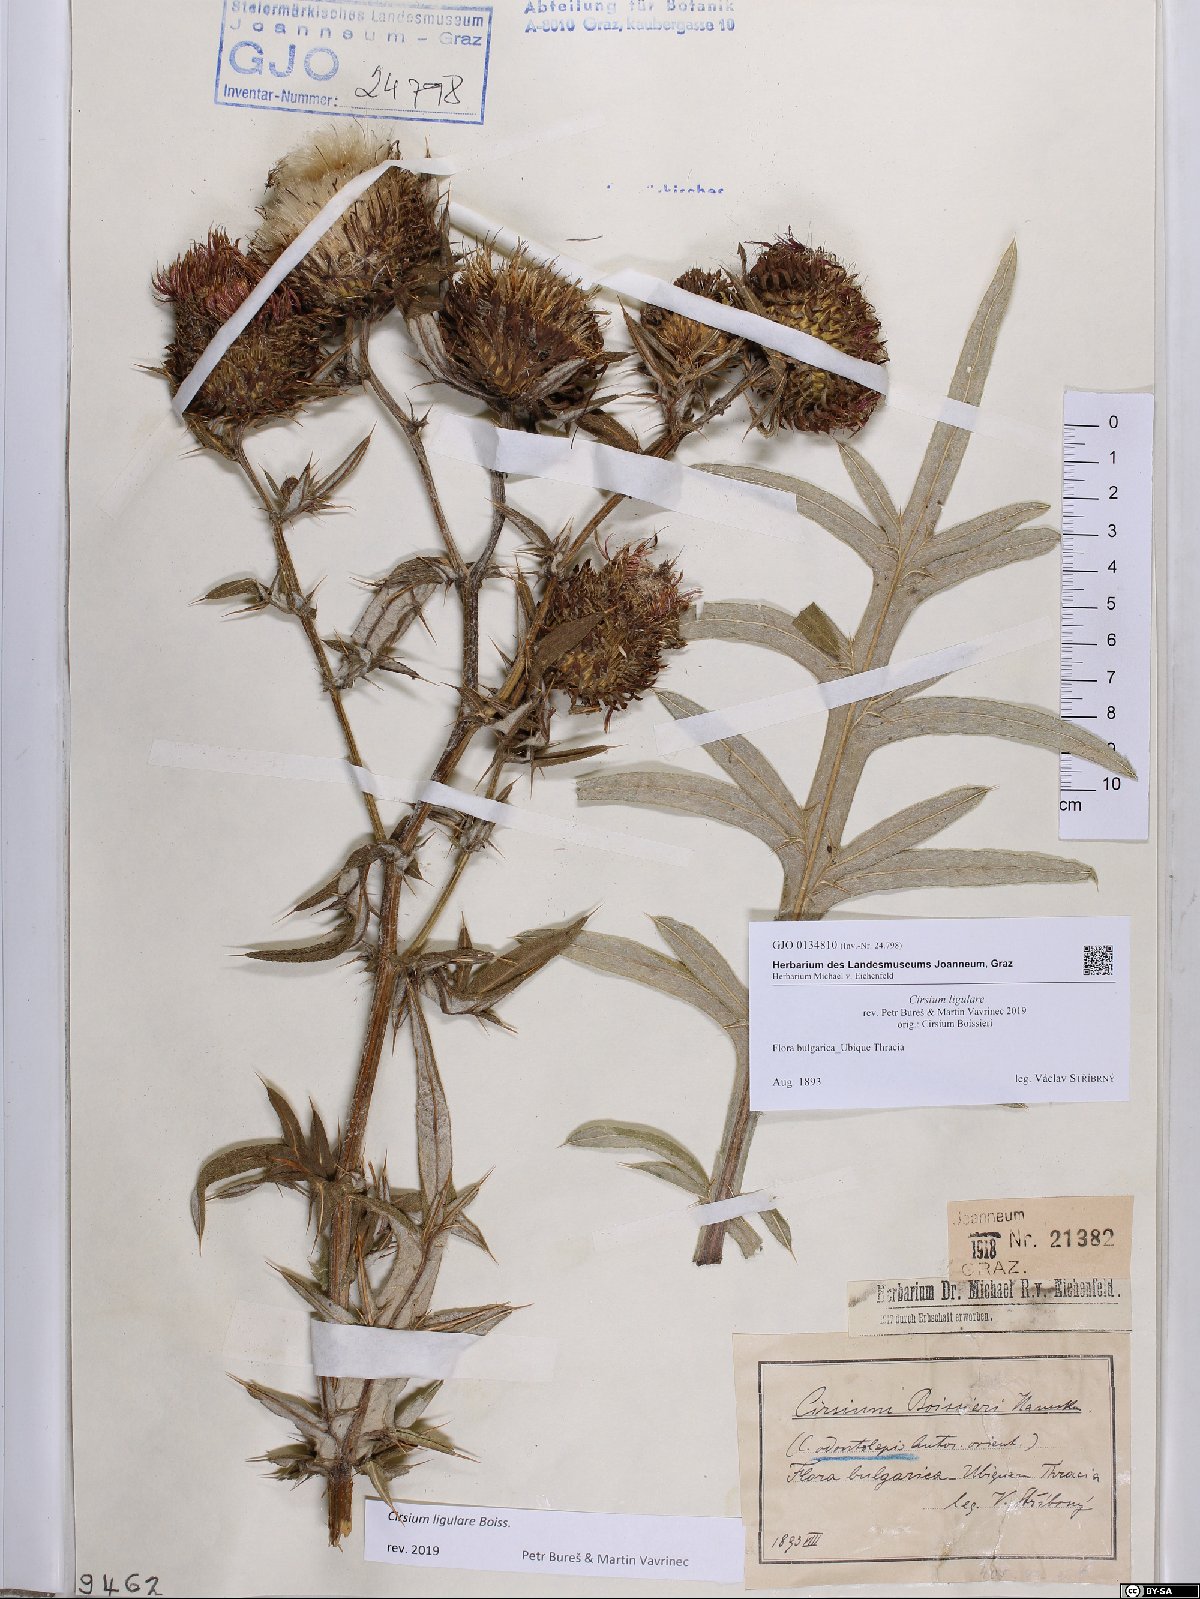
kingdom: Plantae
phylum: Tracheophyta
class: Magnoliopsida
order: Asterales
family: Asteraceae
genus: Lophiolepis
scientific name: Lophiolepis ligularis
